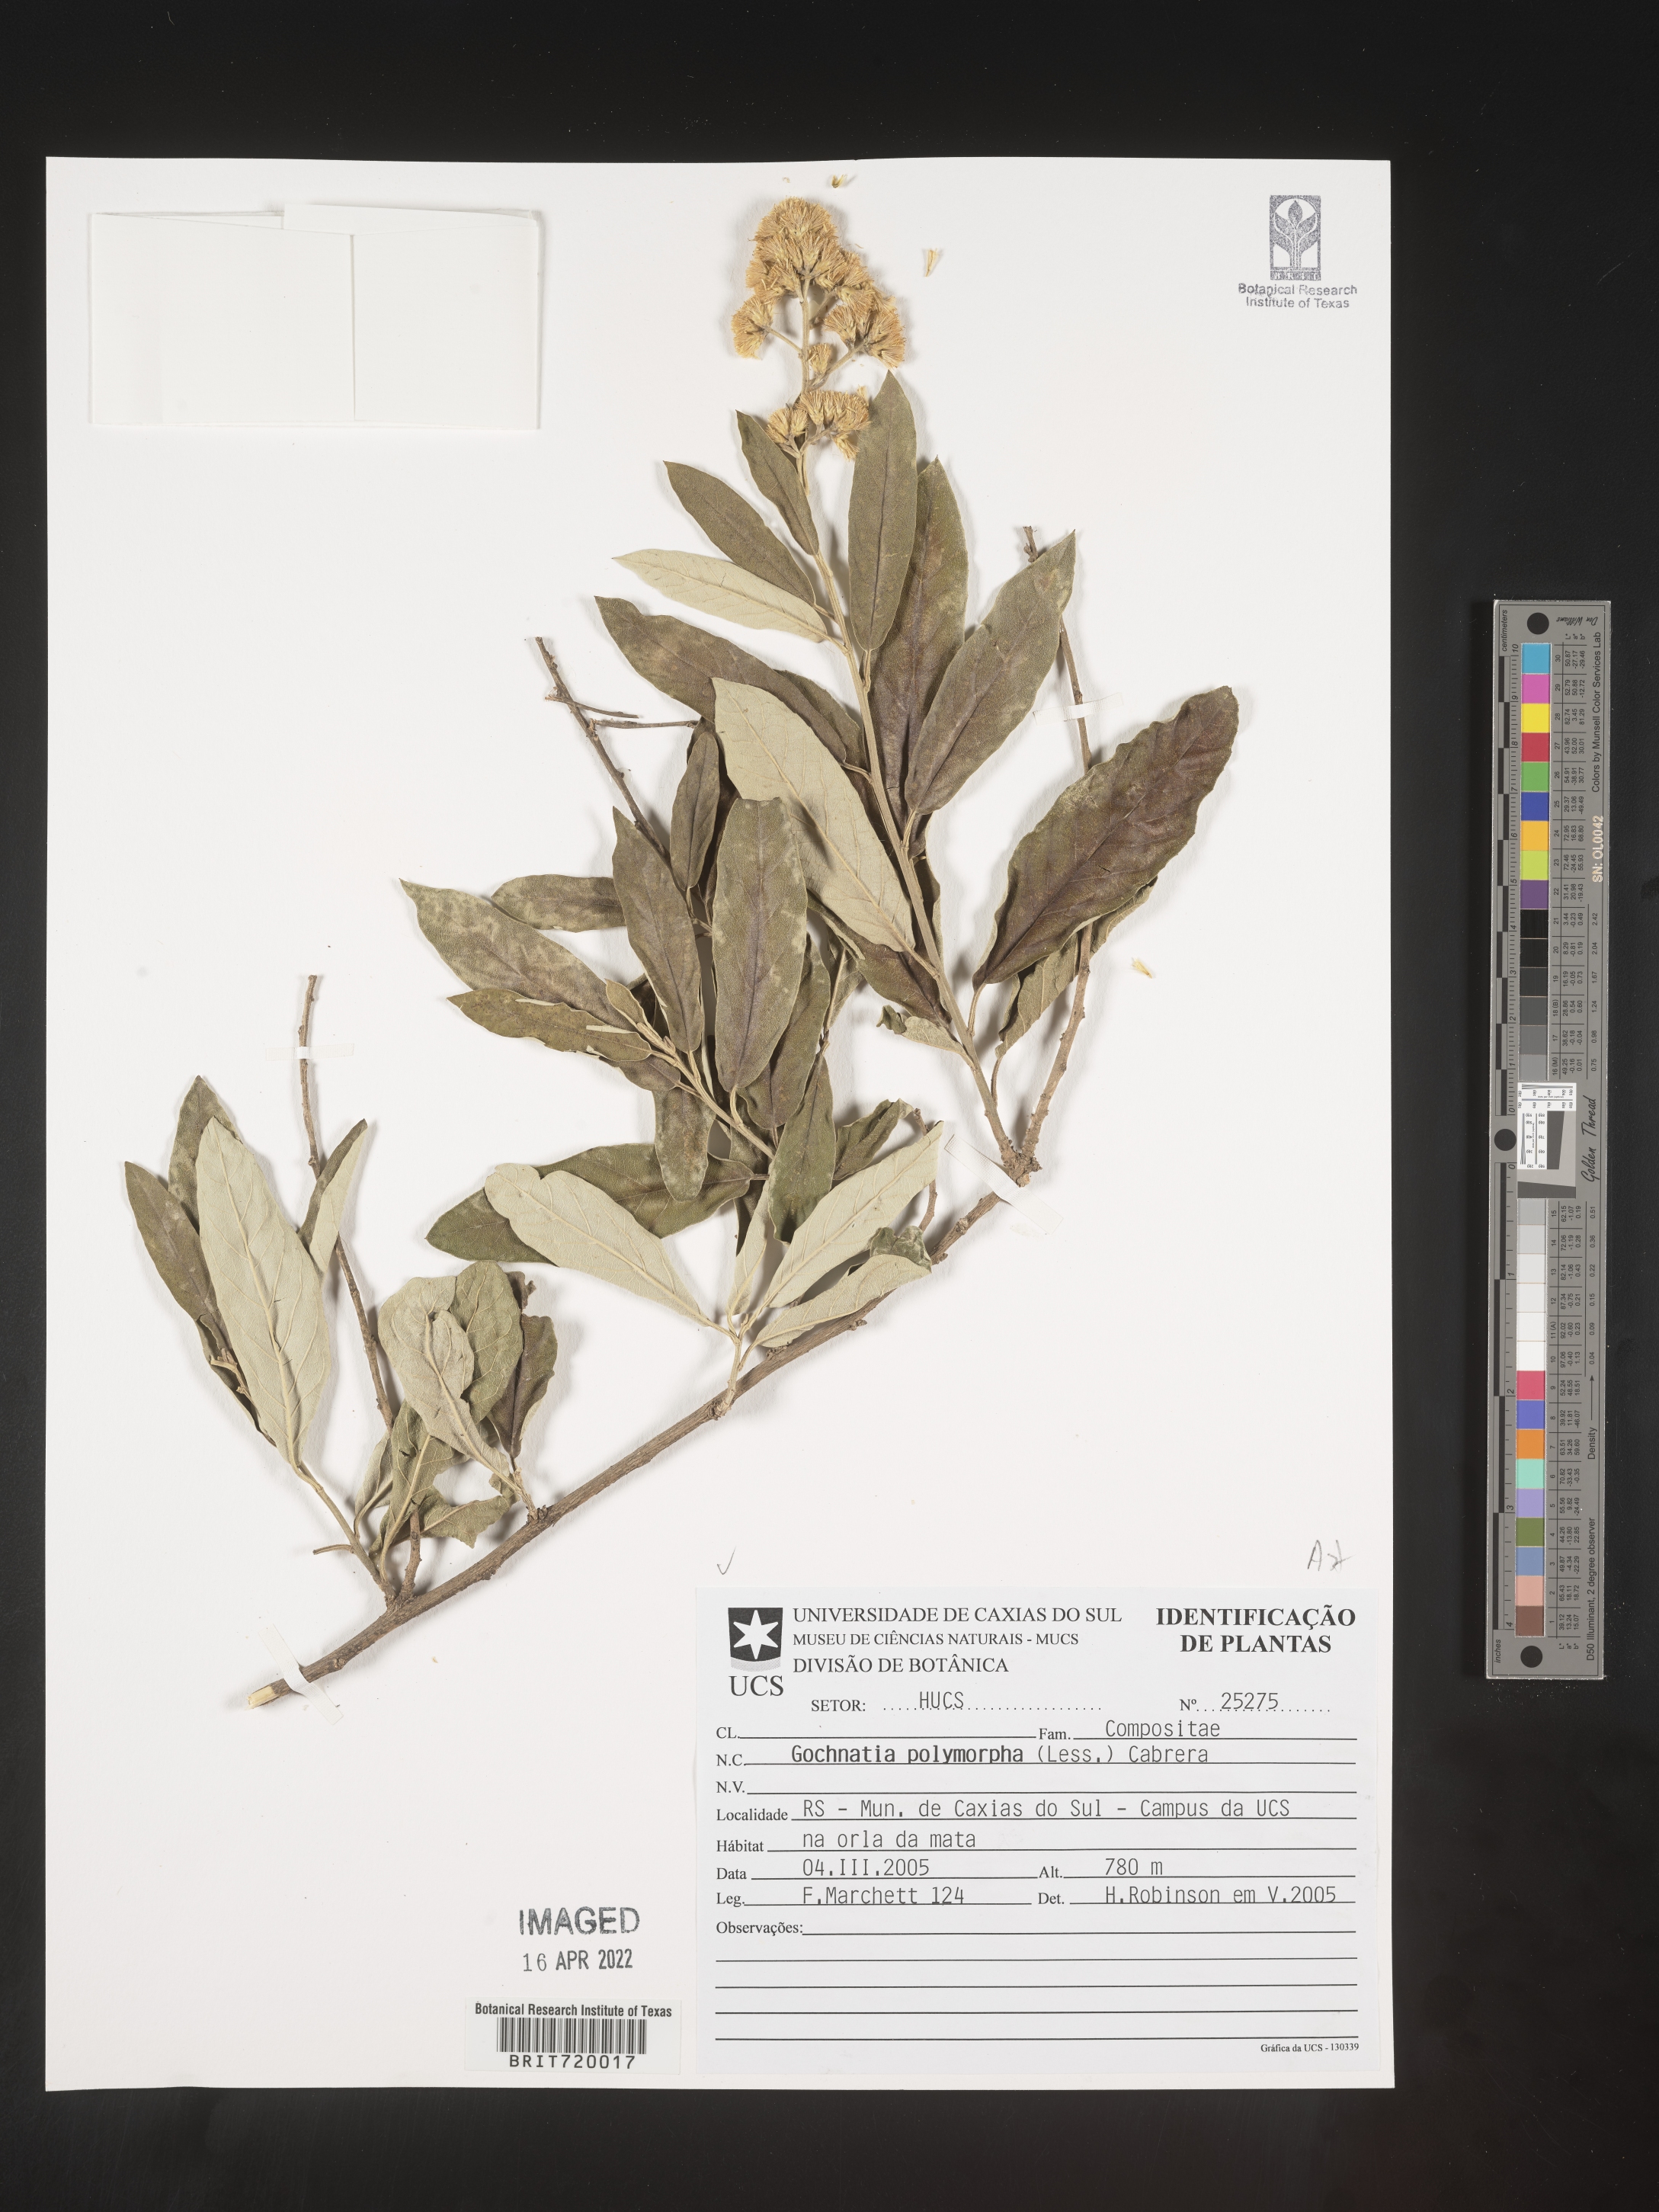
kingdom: Plantae
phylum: Tracheophyta
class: Magnoliopsida
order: Asterales
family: Asteraceae
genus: Gochnatia
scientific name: Gochnatia
